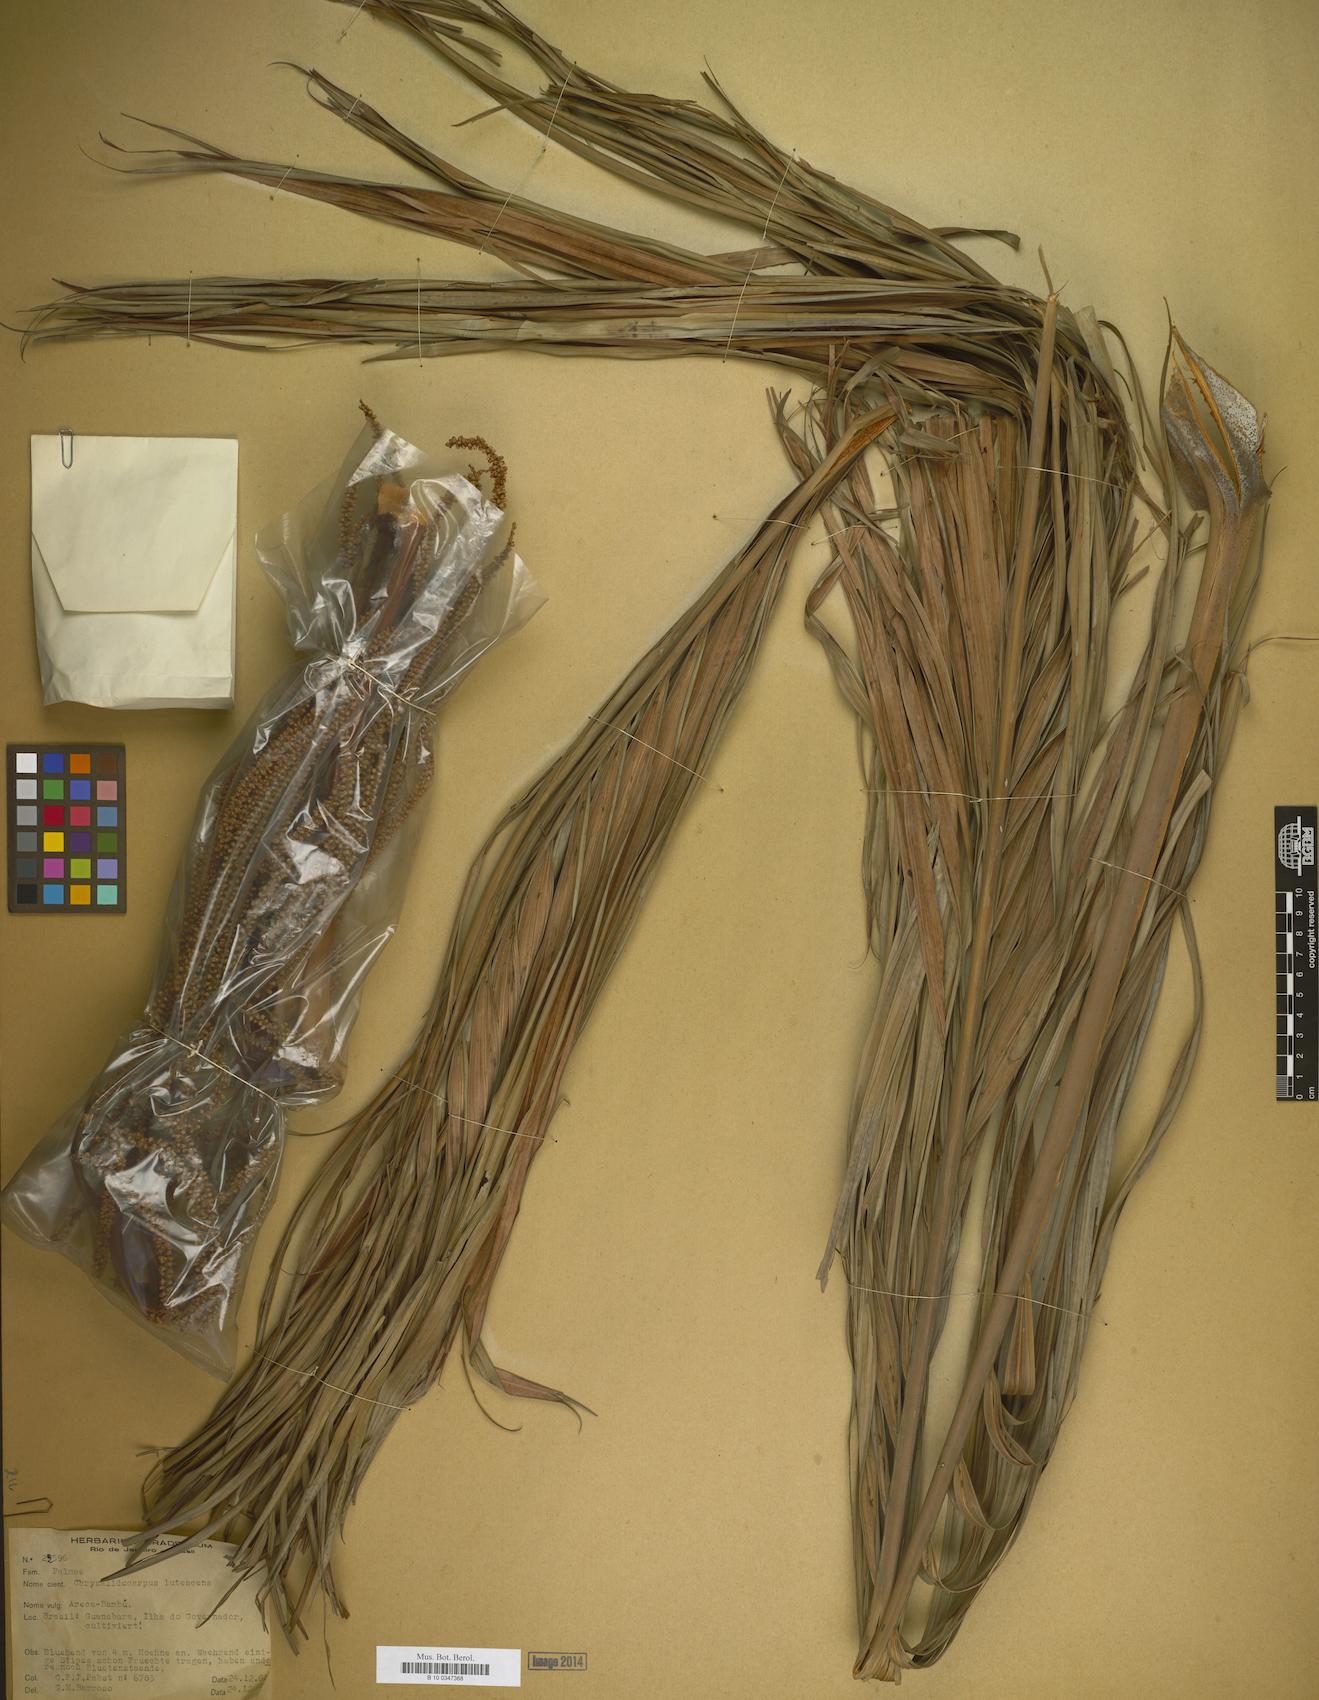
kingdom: Plantae
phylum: Tracheophyta
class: Liliopsida
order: Arecales
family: Arecaceae
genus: Dypsis
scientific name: Dypsis lutescens
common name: Yellow butterfly palm
